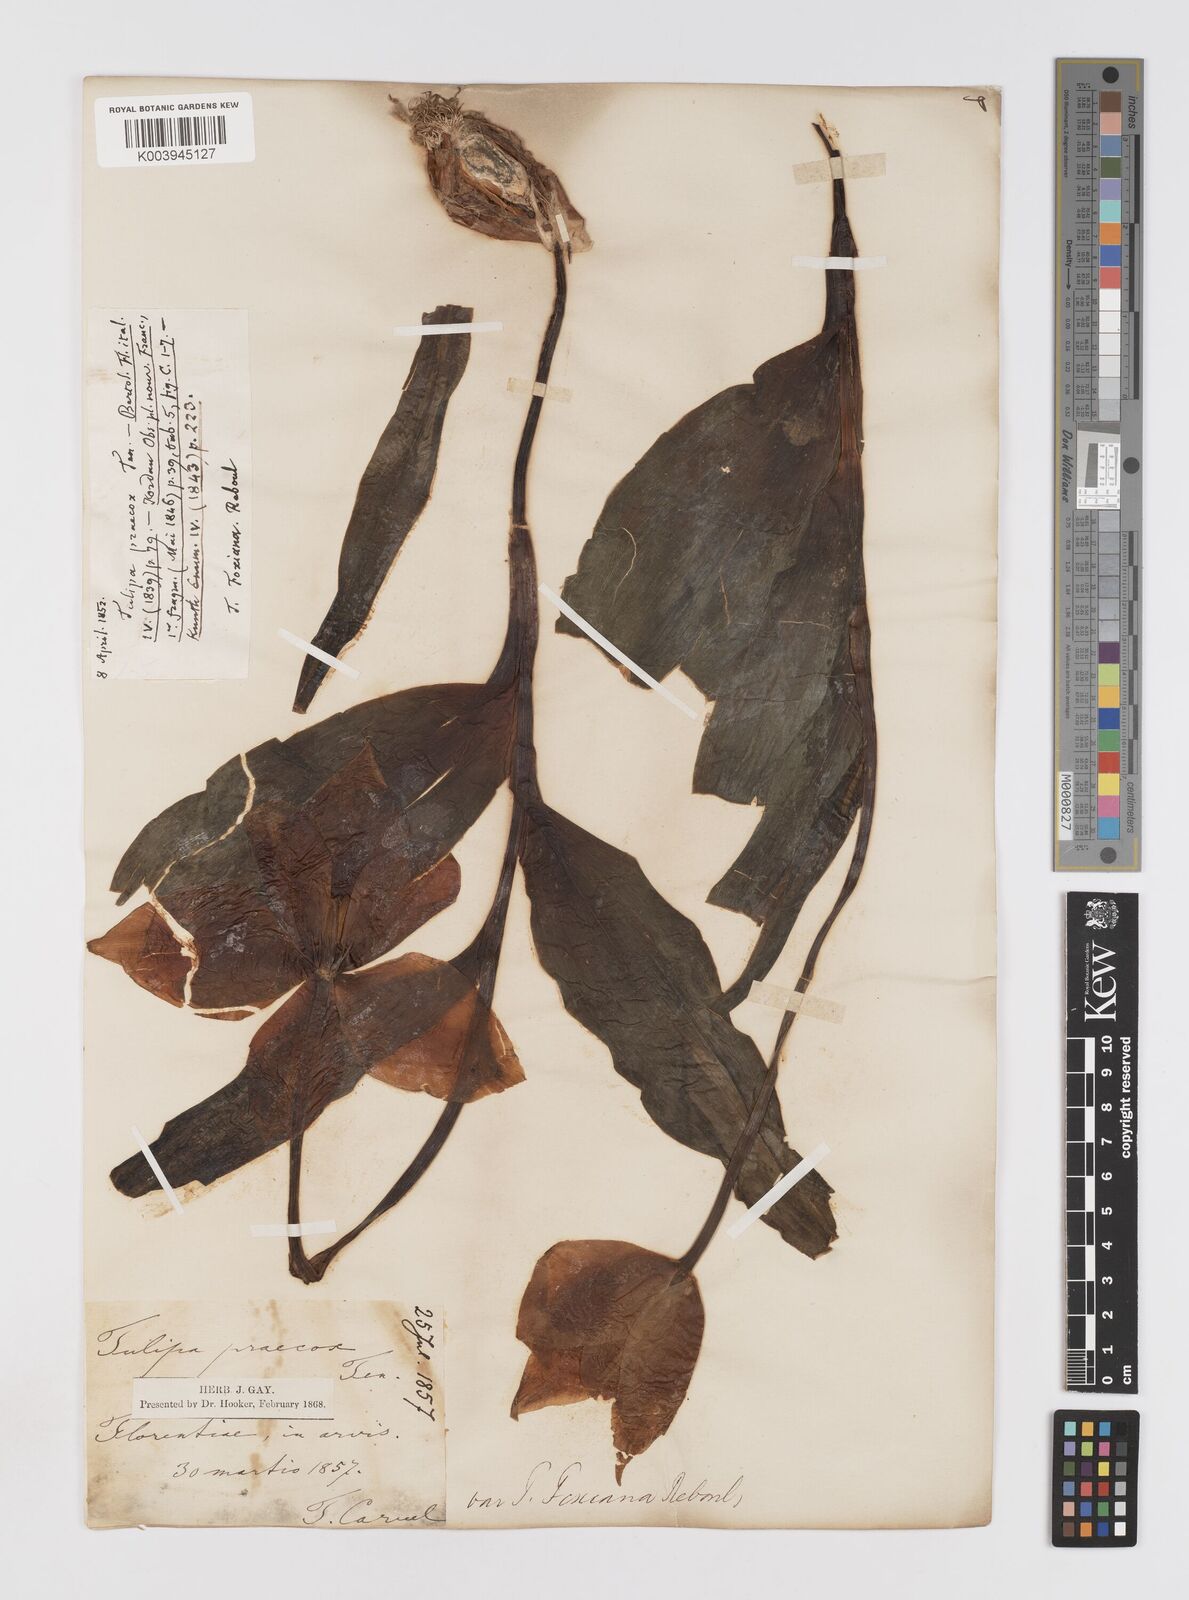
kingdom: Plantae
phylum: Tracheophyta
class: Liliopsida
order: Liliales
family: Liliaceae
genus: Tulipa
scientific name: Tulipa
